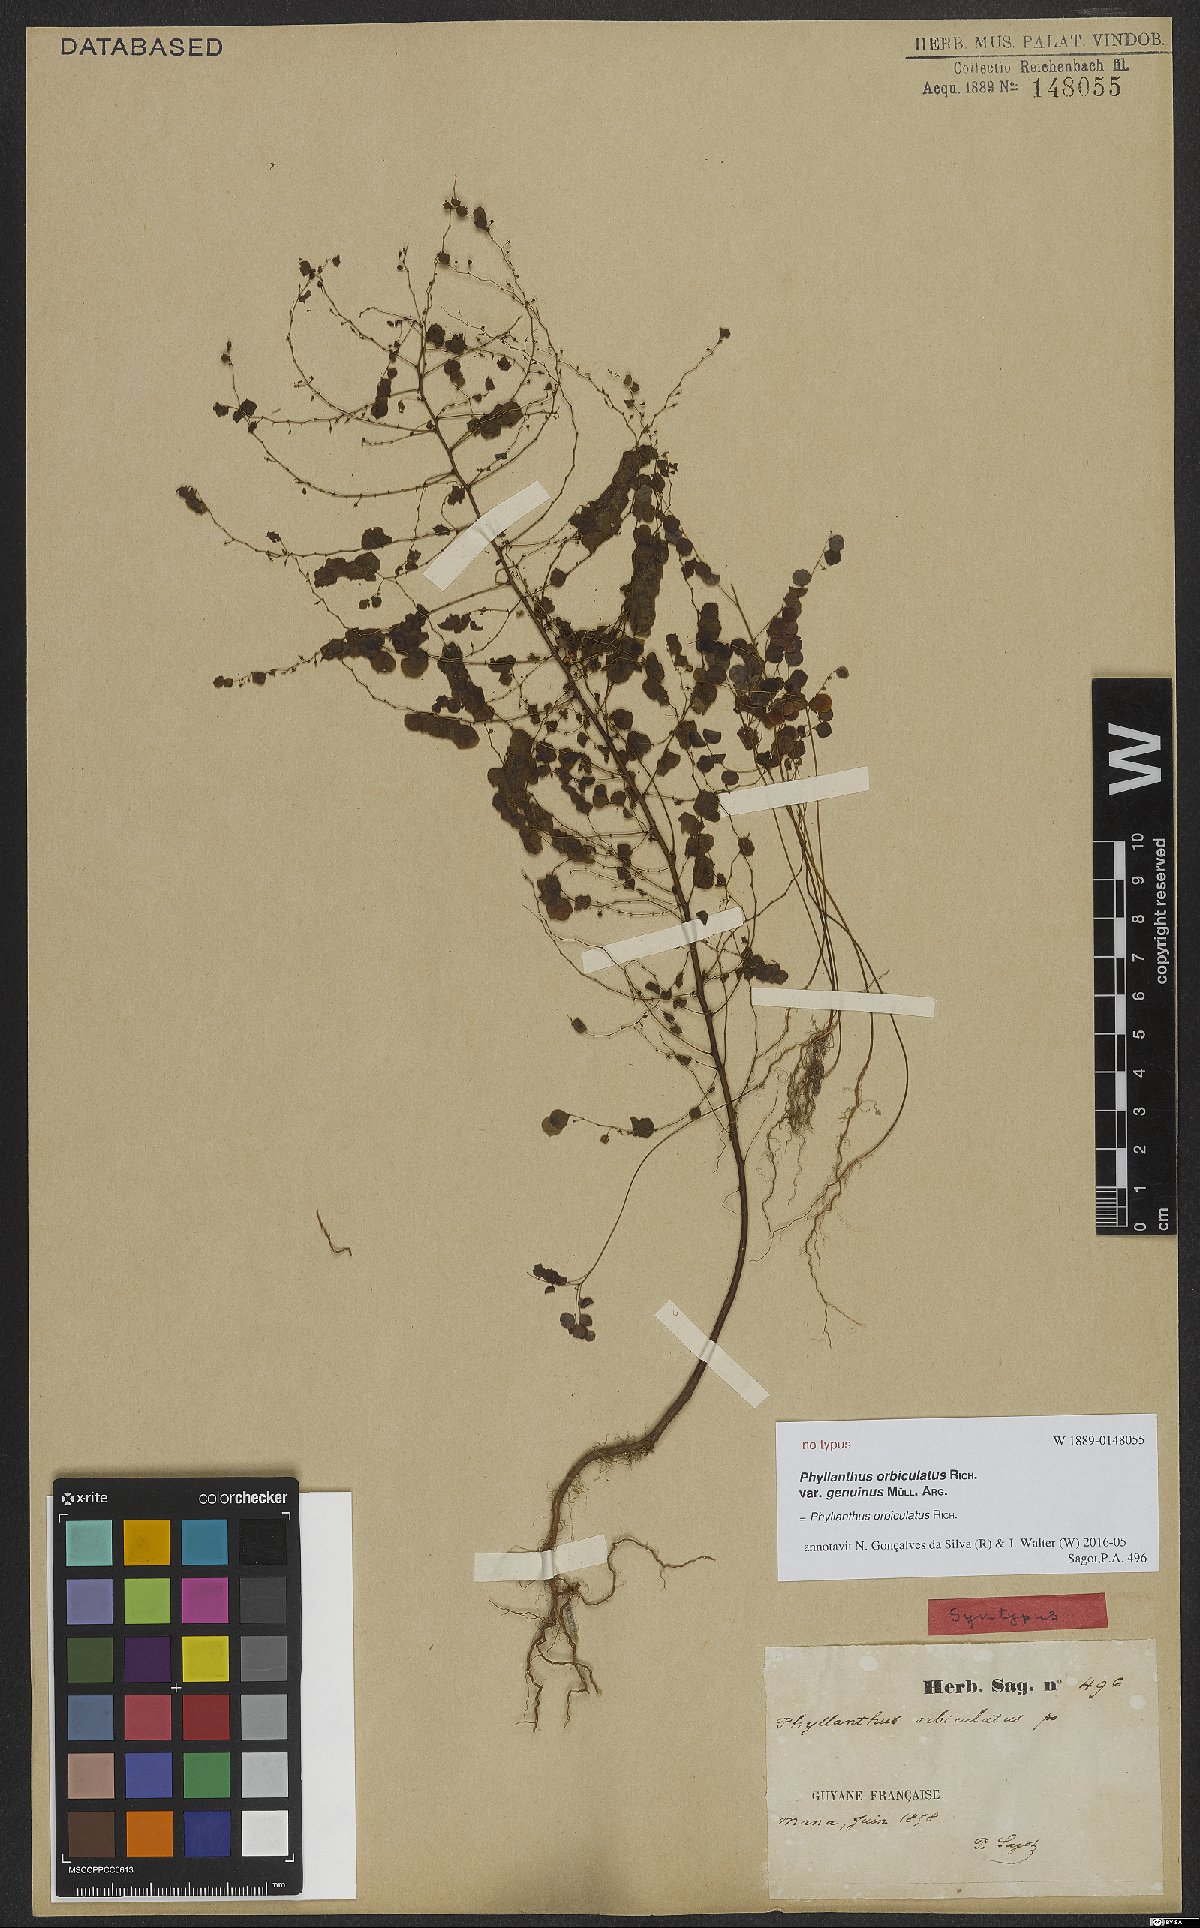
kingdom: Plantae
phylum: Tracheophyta
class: Magnoliopsida
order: Malpighiales
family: Phyllanthaceae
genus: Phyllanthus
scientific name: Phyllanthus orbiculatus
